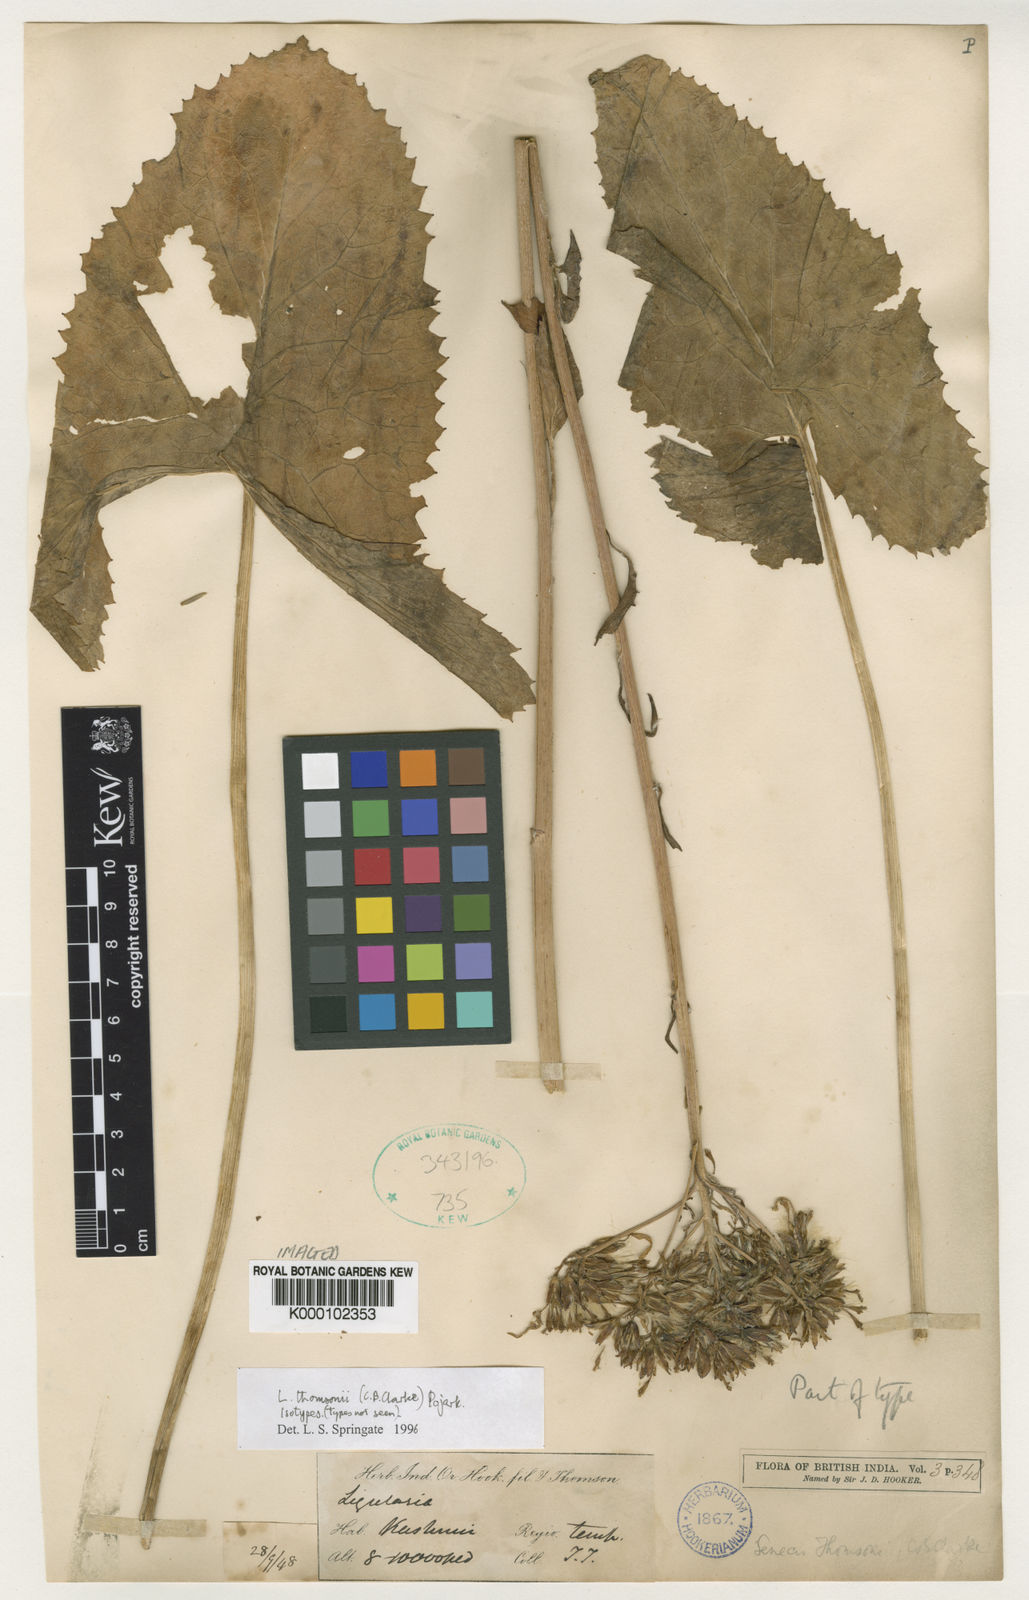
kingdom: Plantae
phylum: Tracheophyta
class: Magnoliopsida
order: Asterales
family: Asteraceae
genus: Vickifunkia
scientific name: Vickifunkia thomsonii
